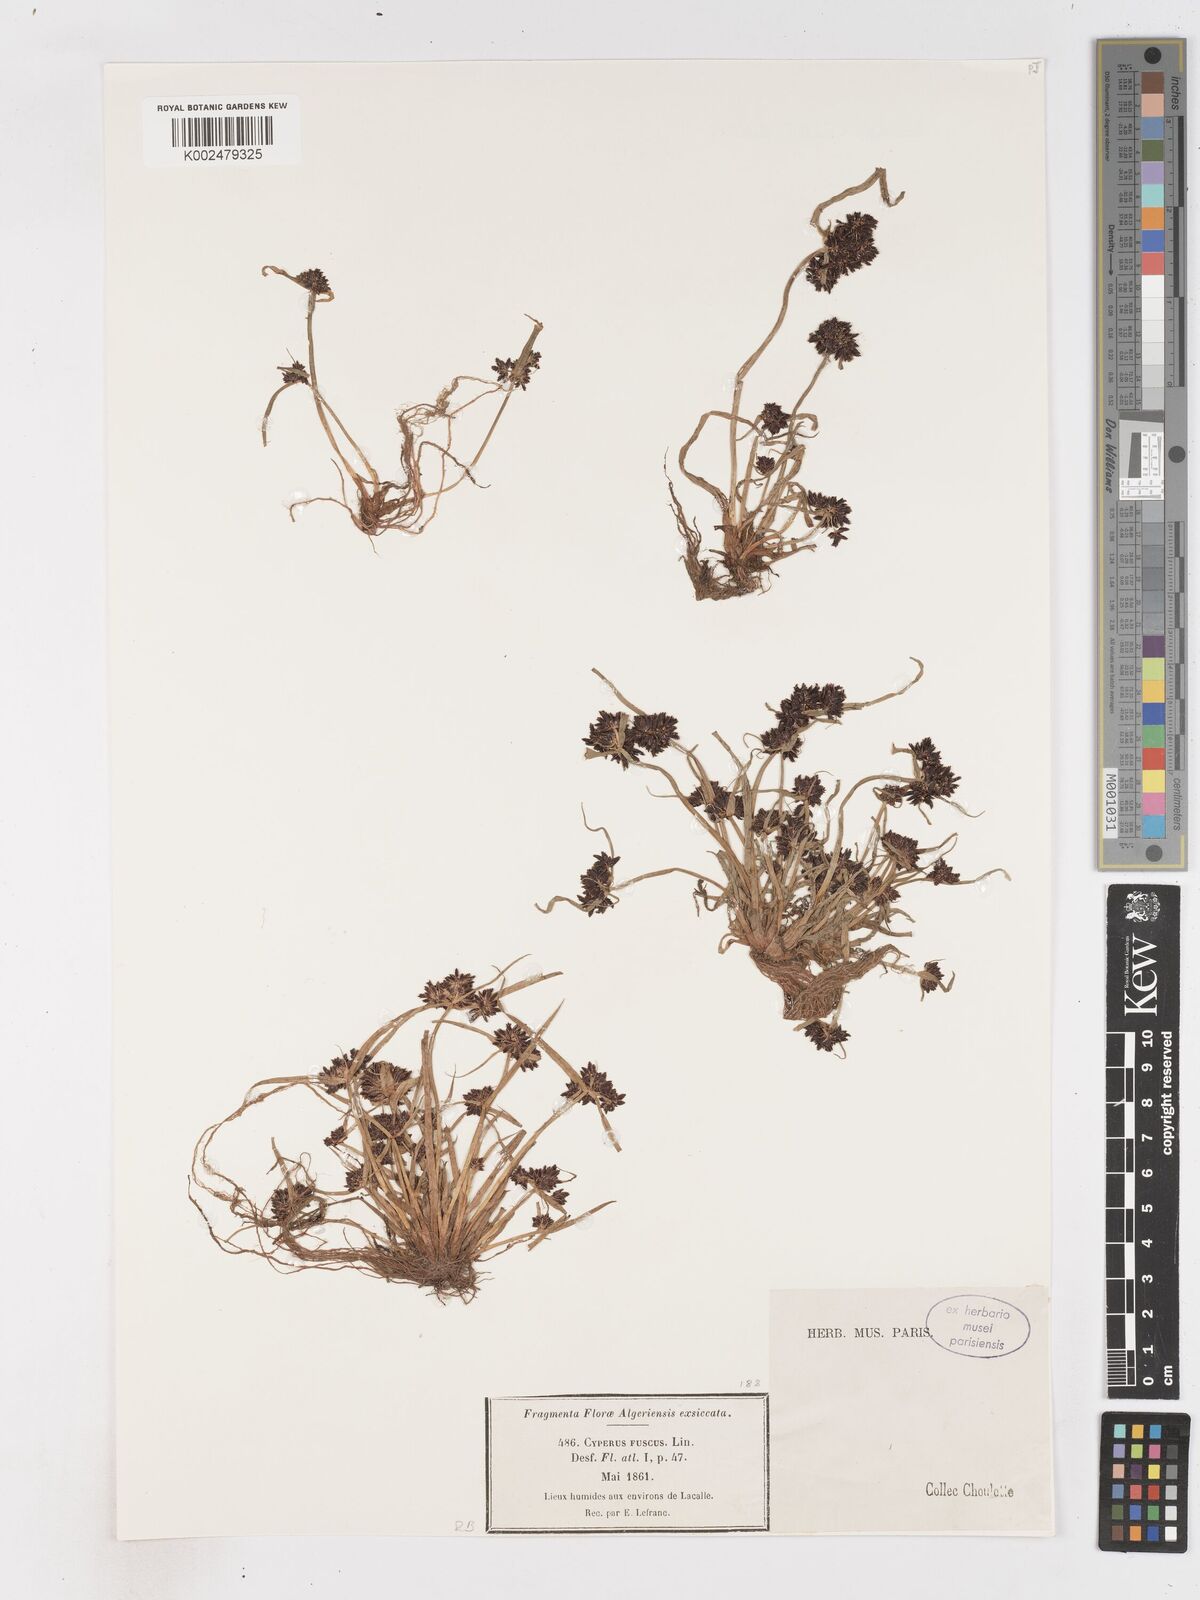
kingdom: Plantae
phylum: Tracheophyta
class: Liliopsida
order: Poales
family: Cyperaceae
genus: Cyperus
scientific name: Cyperus fuscus
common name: Brown galingale
